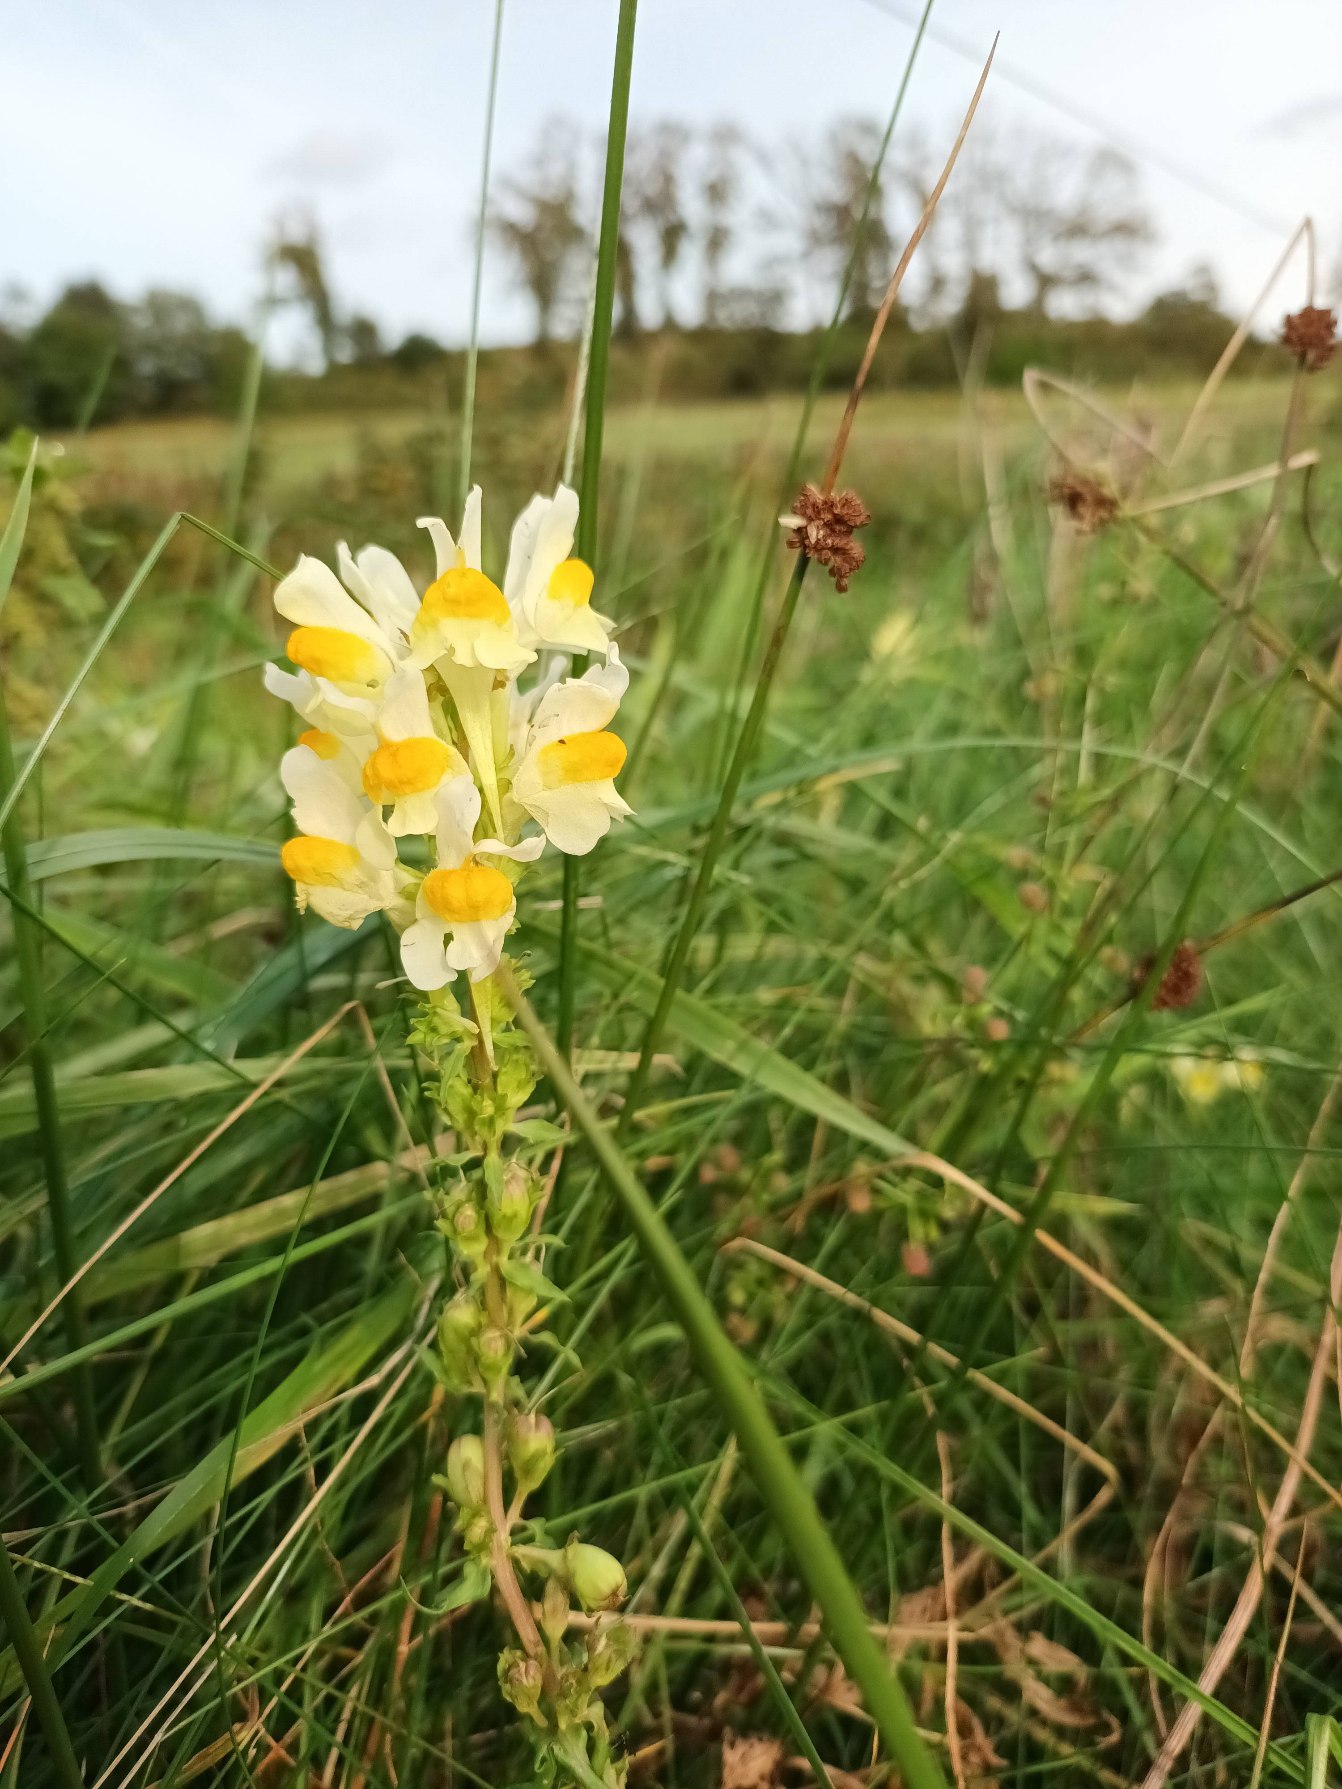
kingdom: Plantae
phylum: Tracheophyta
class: Magnoliopsida
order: Lamiales
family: Plantaginaceae
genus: Linaria
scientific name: Linaria vulgaris
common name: Almindelig torskemund
